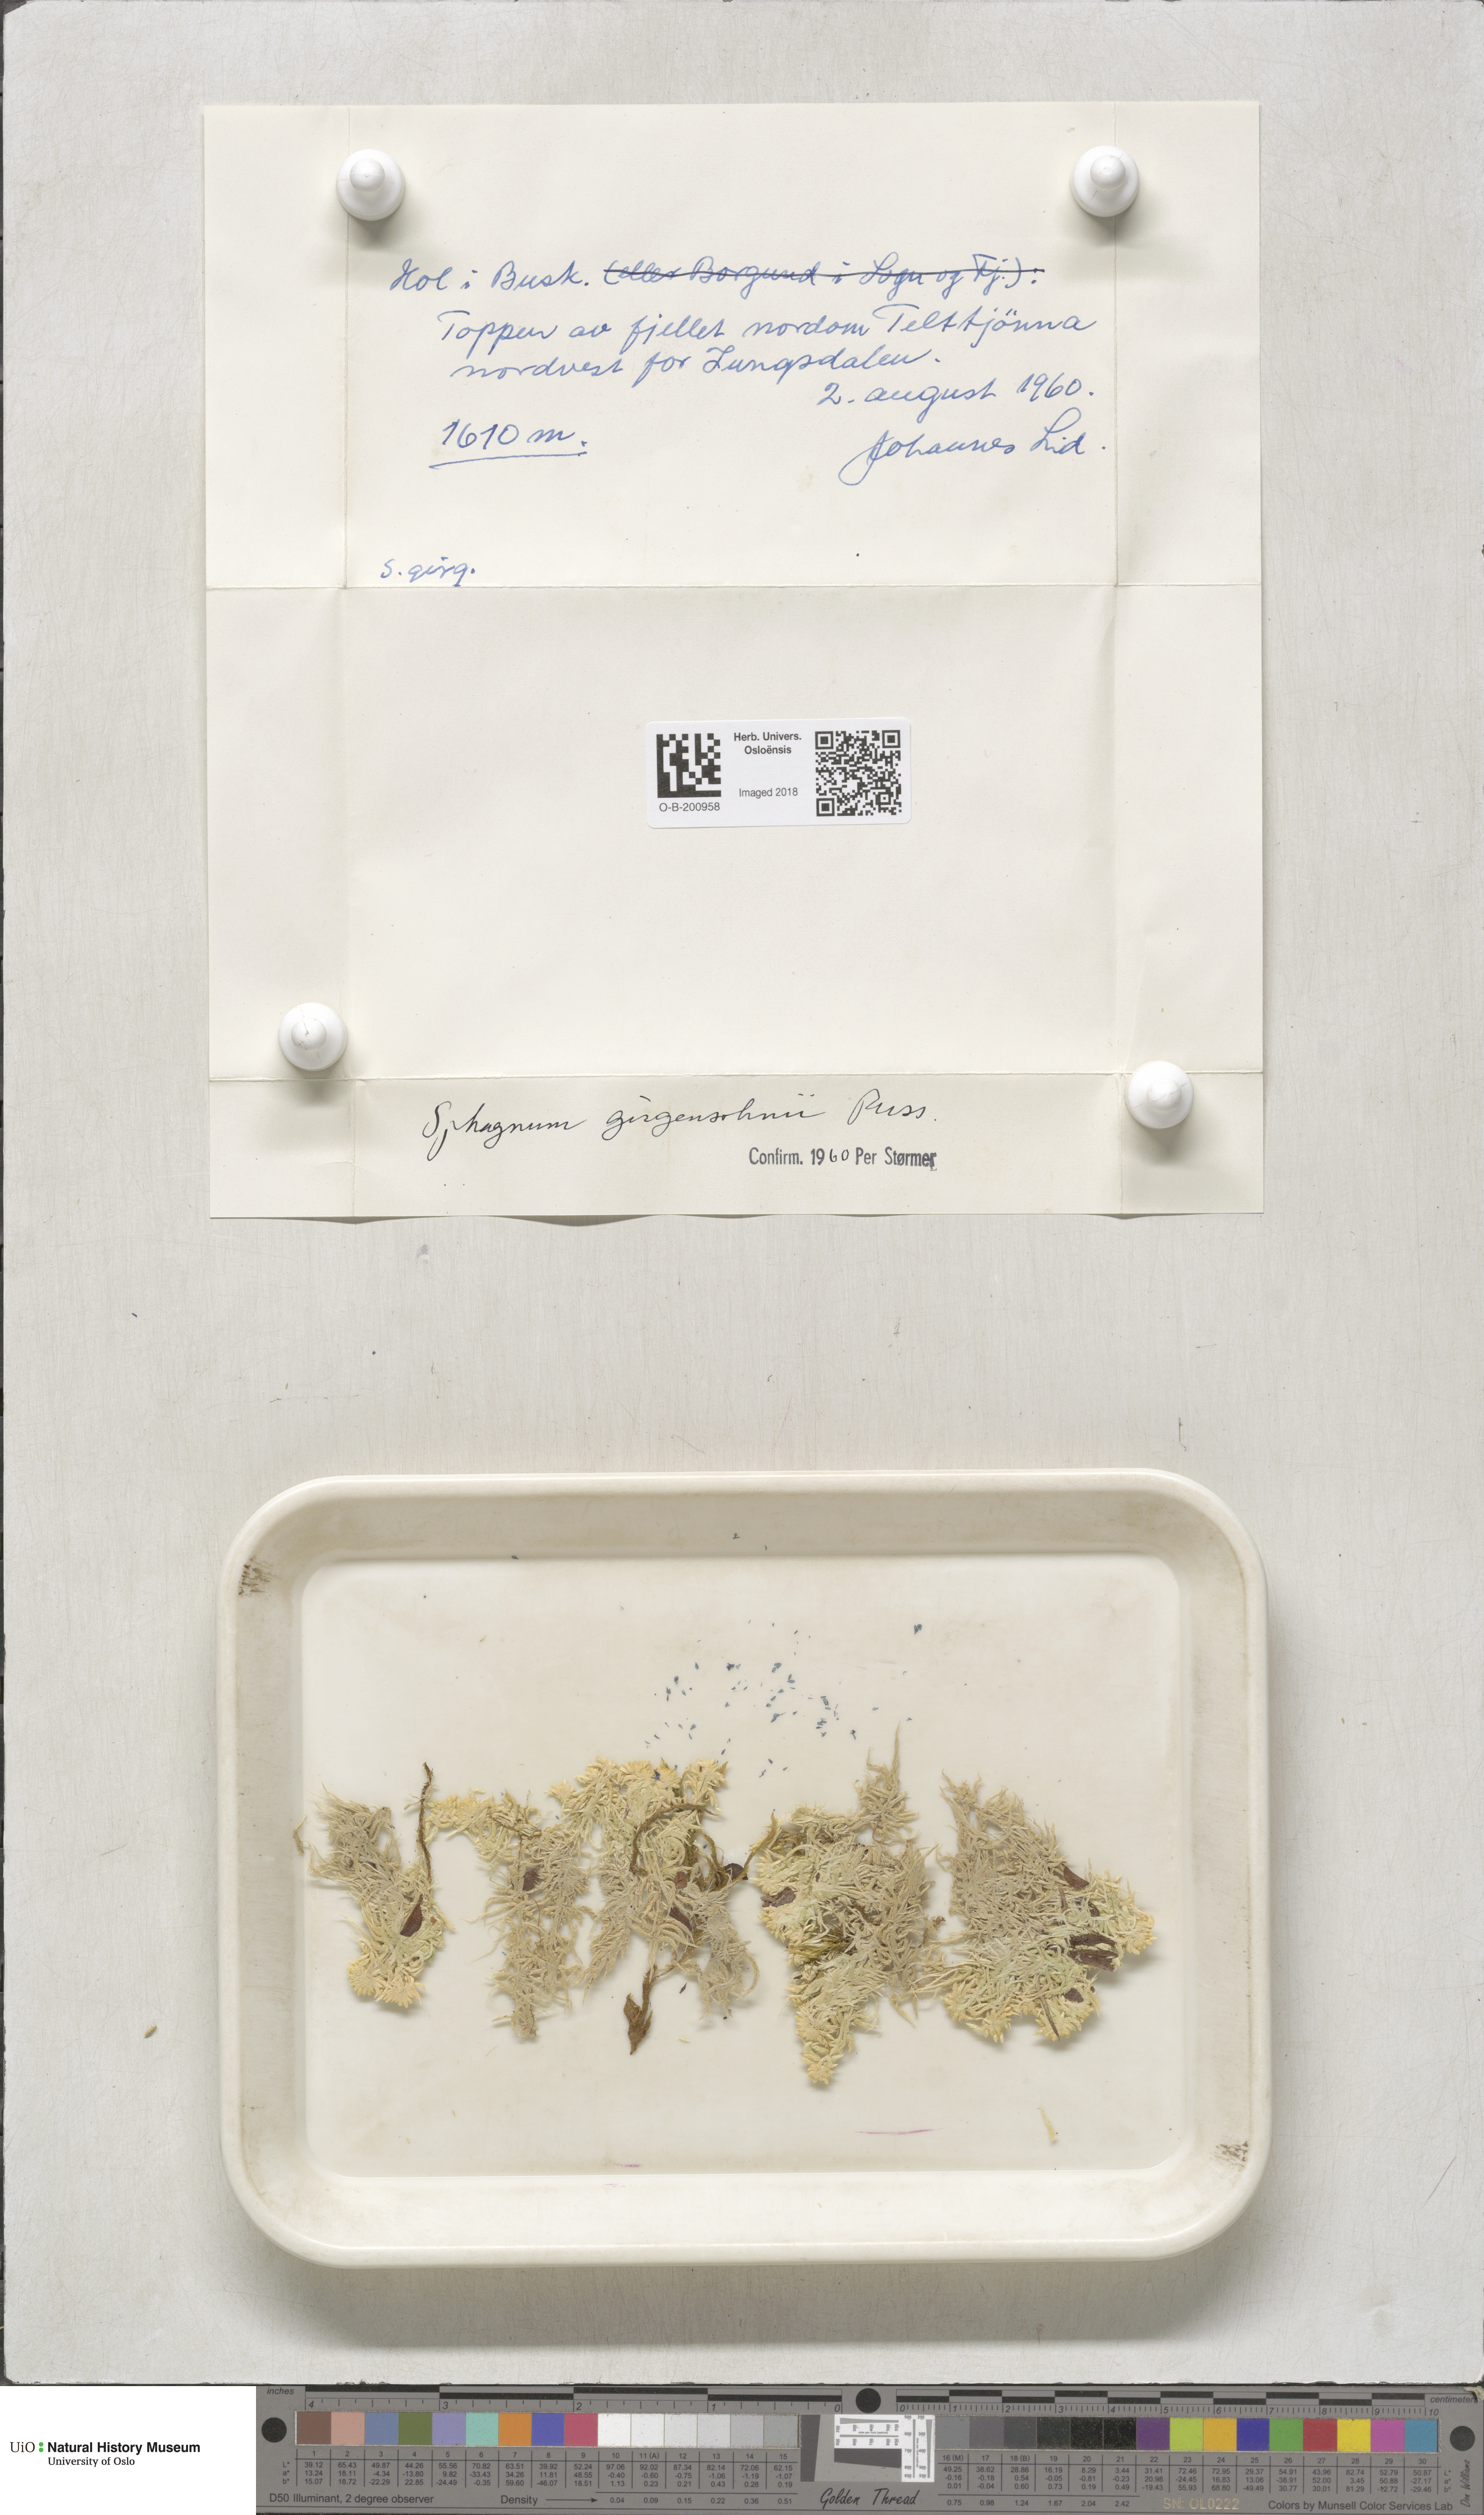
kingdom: Plantae
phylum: Bryophyta
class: Sphagnopsida
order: Sphagnales
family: Sphagnaceae
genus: Sphagnum
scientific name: Sphagnum girgensohnii
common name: Girgensohn's peat moss
